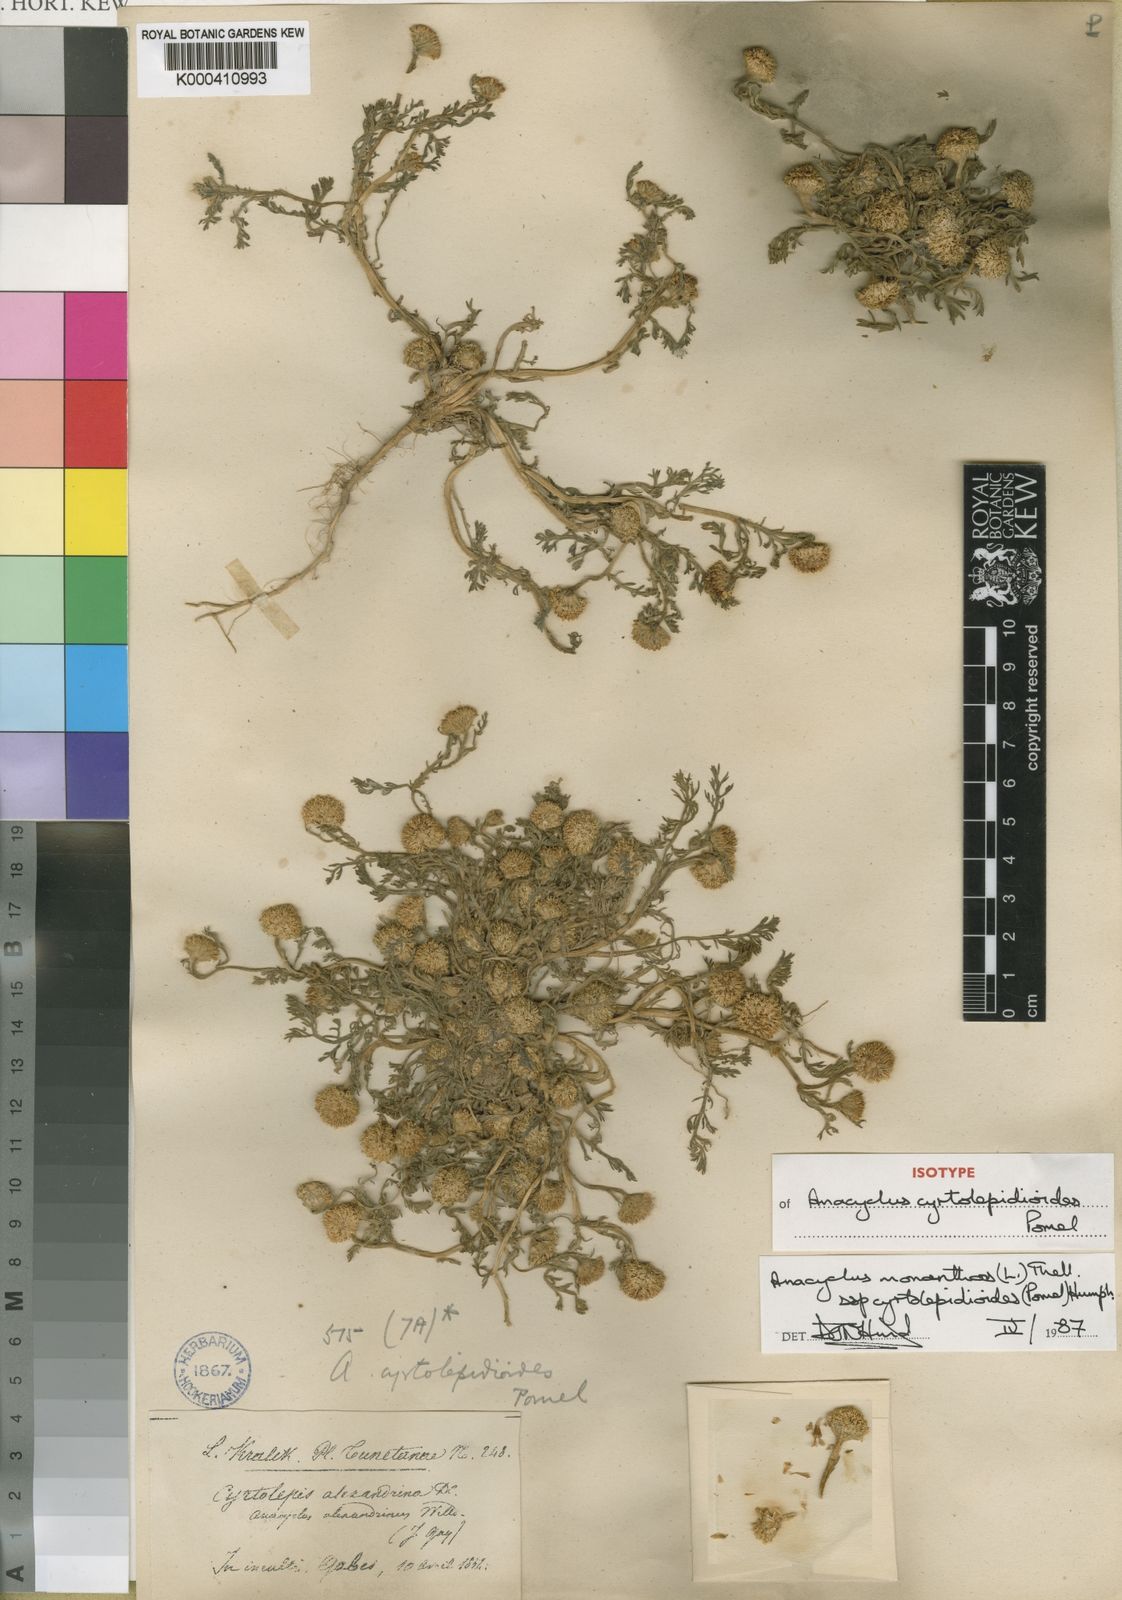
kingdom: Plantae
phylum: Tracheophyta
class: Magnoliopsida
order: Asterales
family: Asteraceae
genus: Anacyclus
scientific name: Anacyclus monanthos
